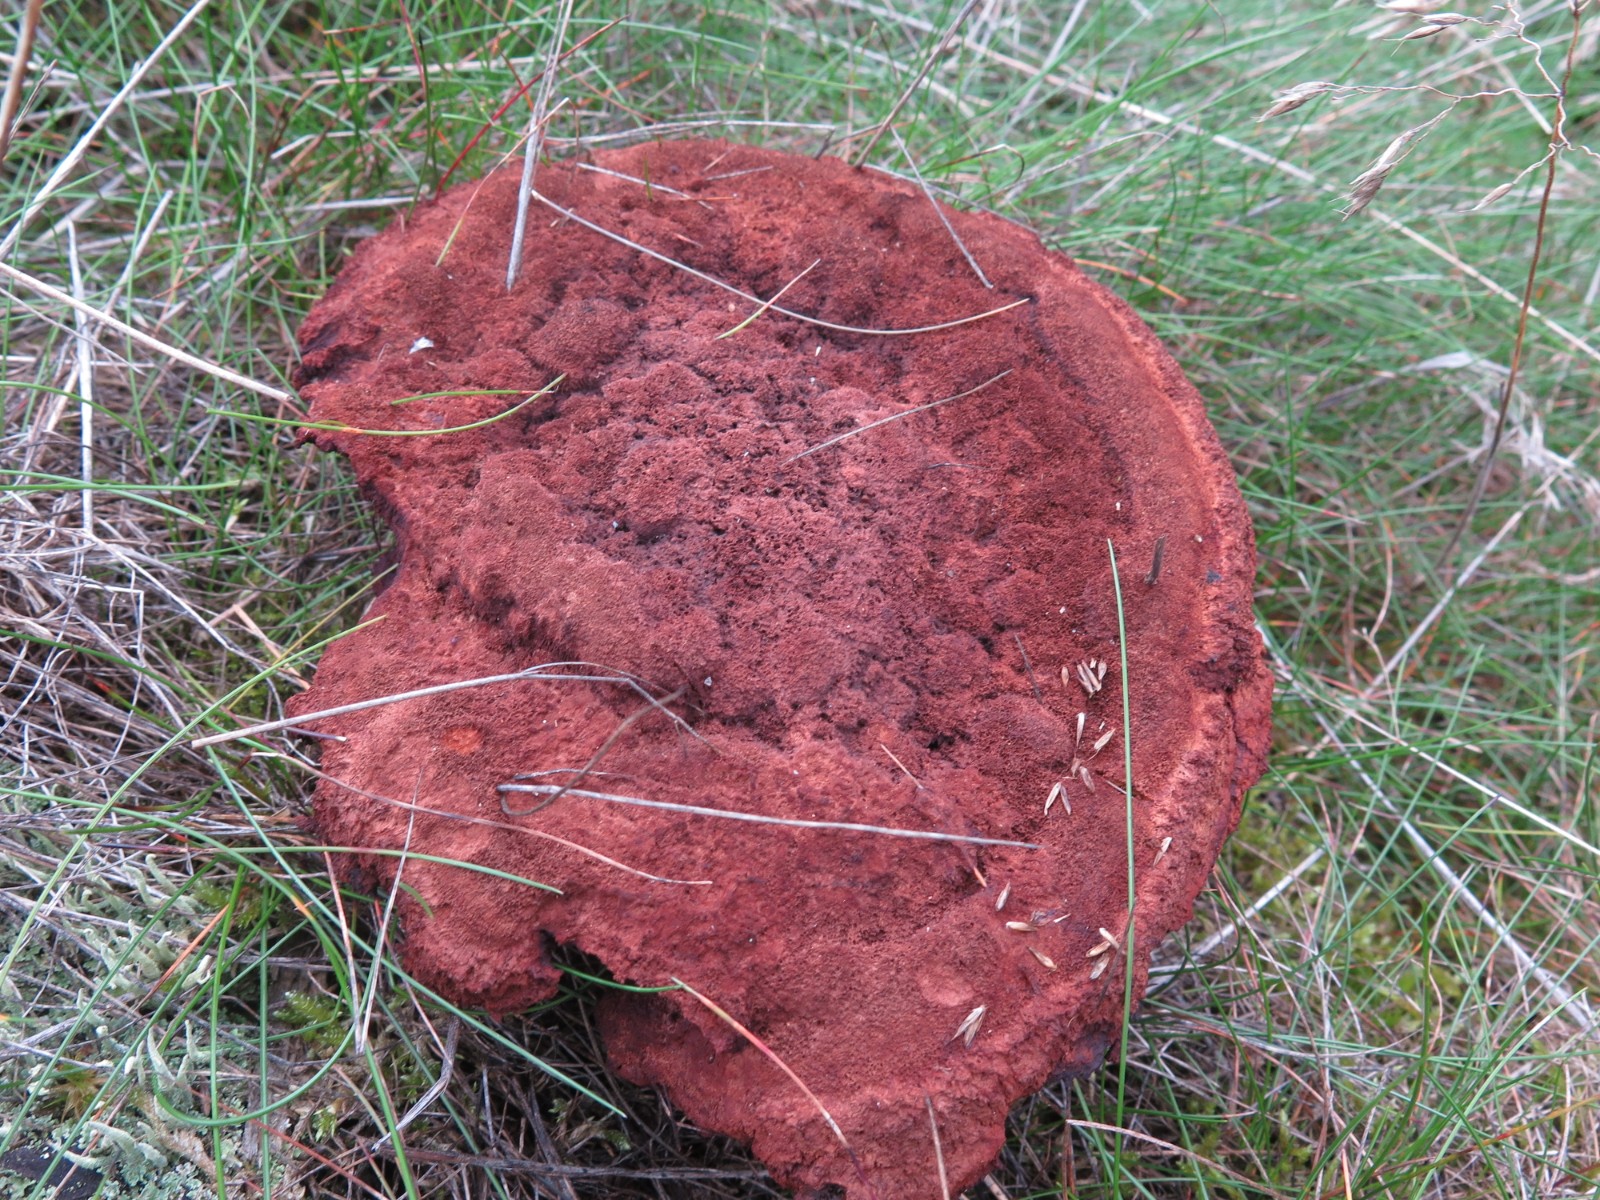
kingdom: Fungi
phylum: Basidiomycota
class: Agaricomycetes
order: Polyporales
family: Laetiporaceae
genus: Phaeolus
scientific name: Phaeolus schweinitzii
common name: brunporesvamp
